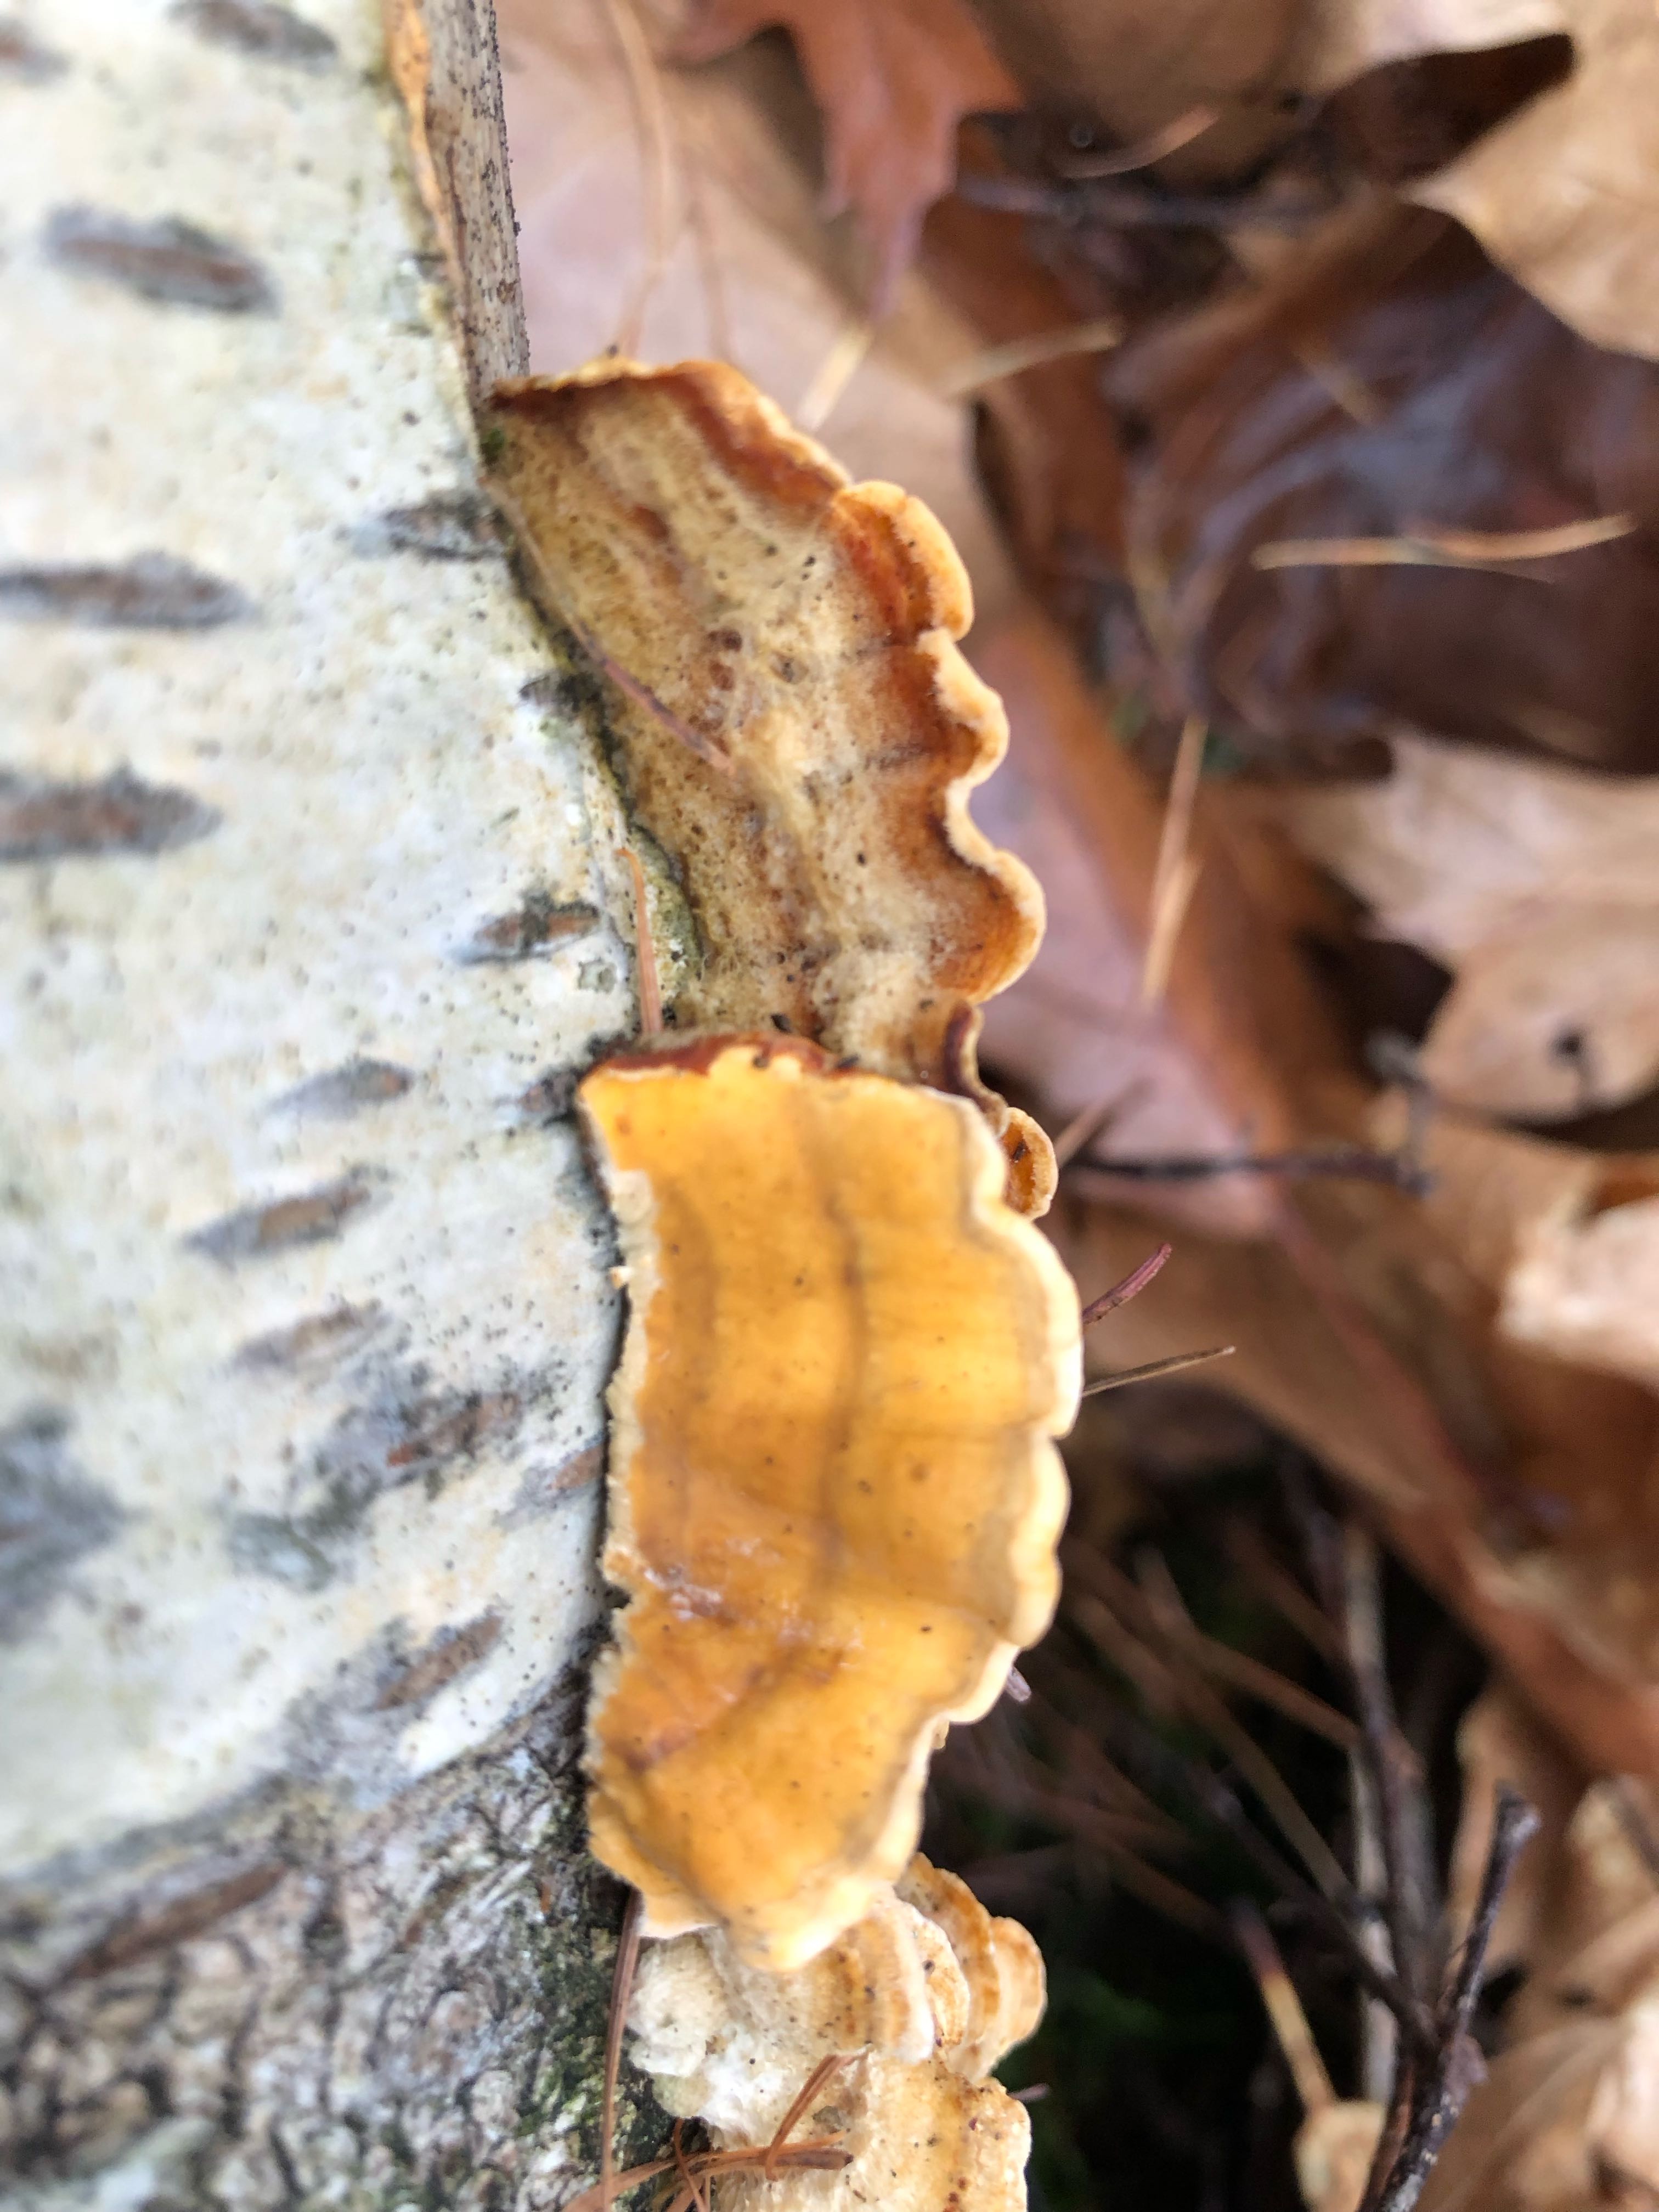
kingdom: Fungi
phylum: Basidiomycota
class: Agaricomycetes
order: Russulales
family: Stereaceae
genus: Stereum
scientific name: Stereum hirsutum
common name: håret lædersvamp
